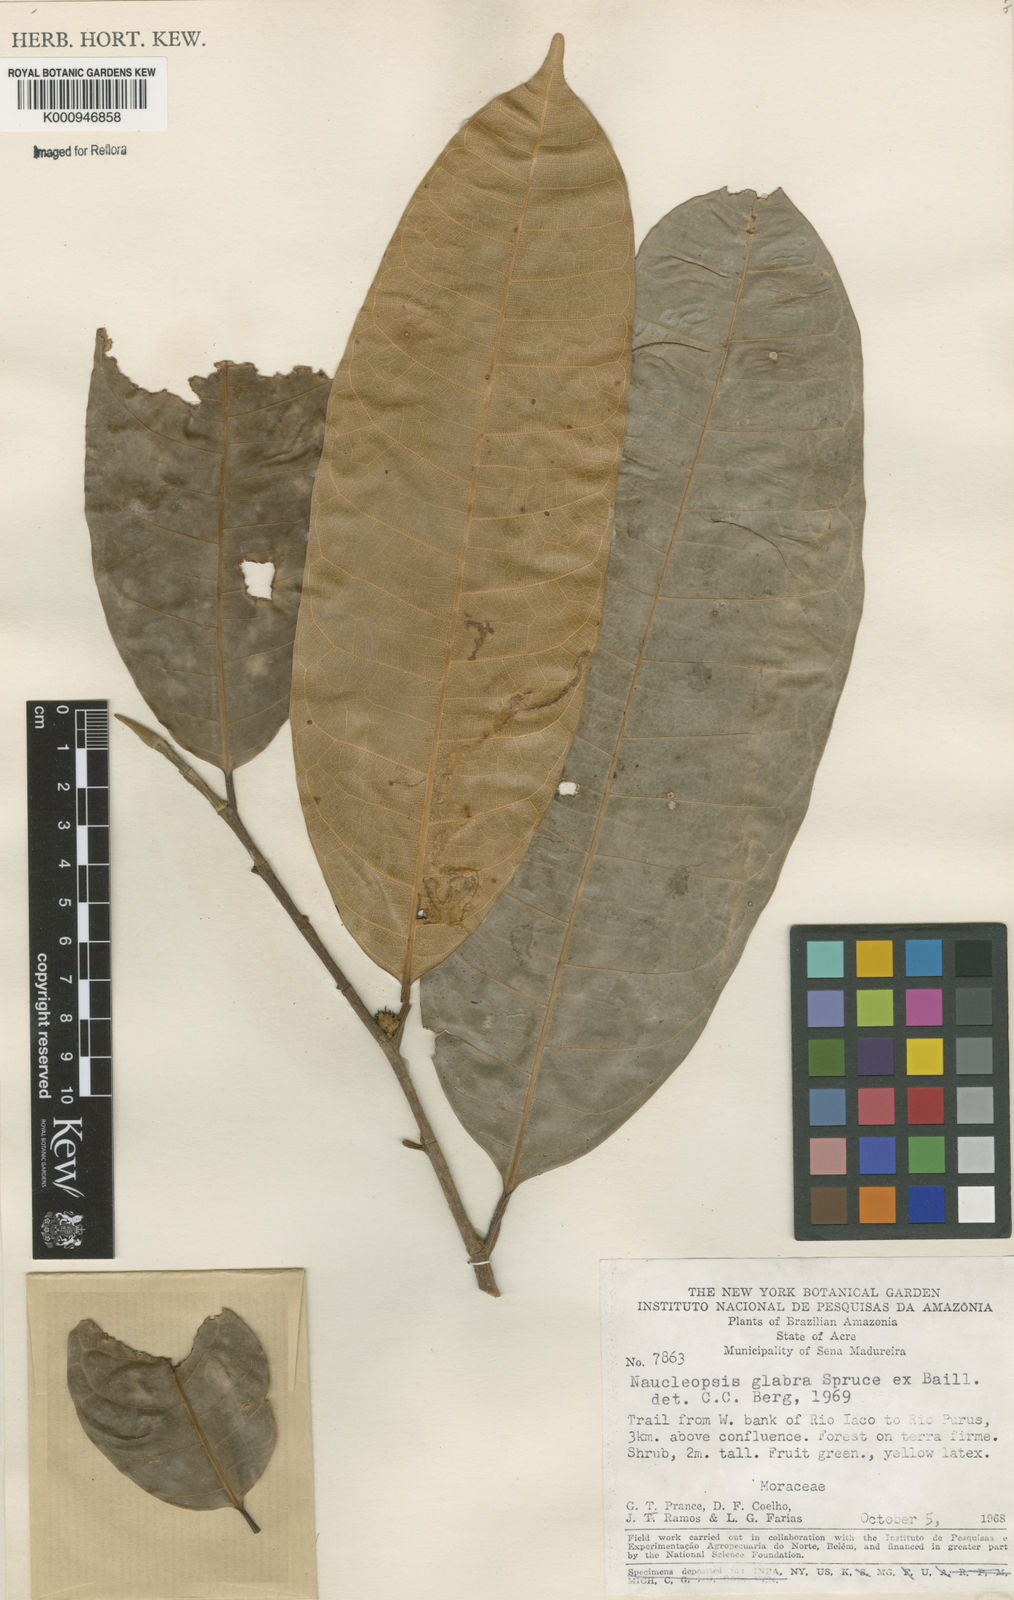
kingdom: Plantae
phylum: Tracheophyta
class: Magnoliopsida
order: Rosales
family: Moraceae
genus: Naucleopsis
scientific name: Naucleopsis glabra
